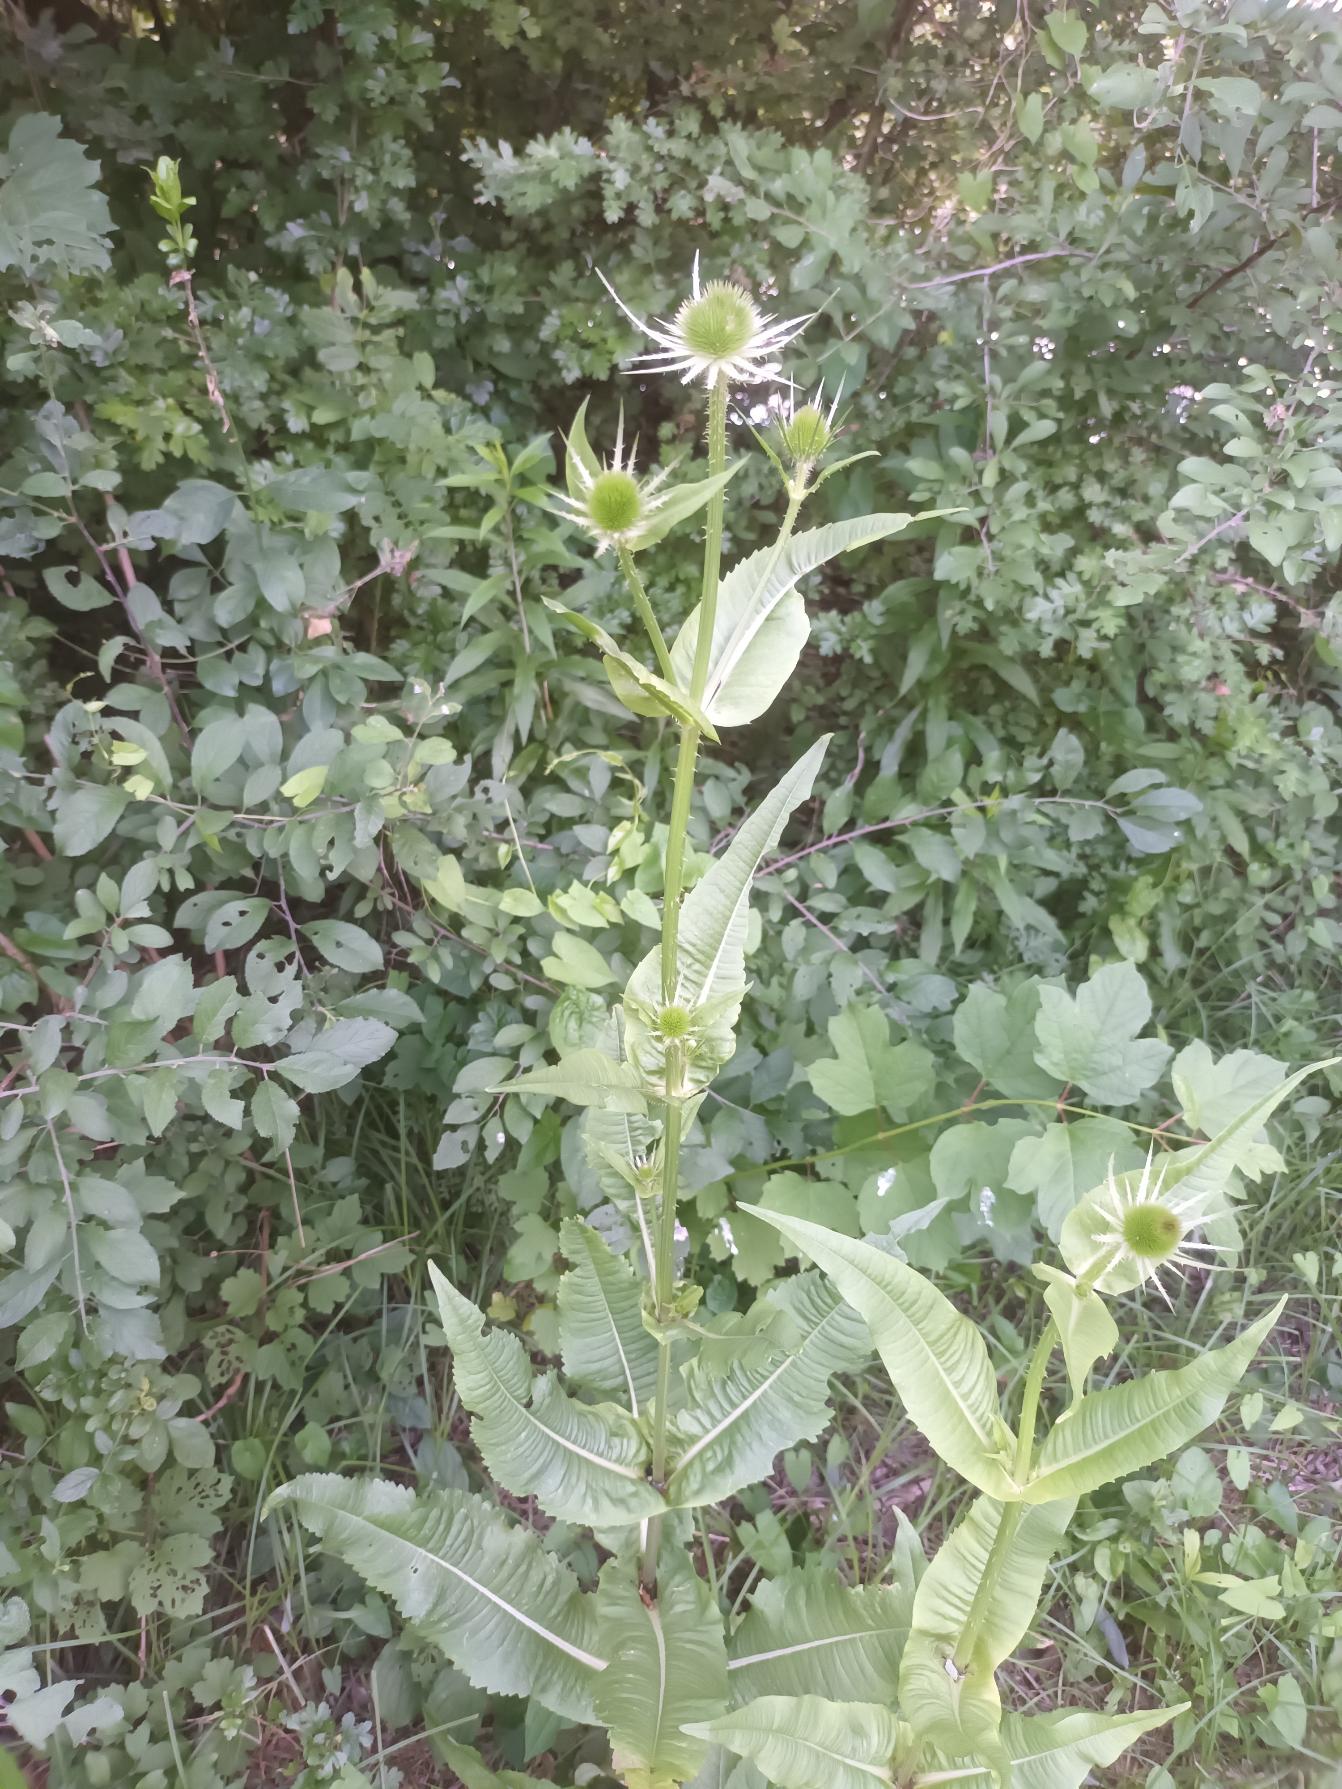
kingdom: Plantae
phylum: Tracheophyta
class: Magnoliopsida
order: Dipsacales
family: Caprifoliaceae
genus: Dipsacus
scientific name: Dipsacus fullonum
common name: Gærde-kartebolle
